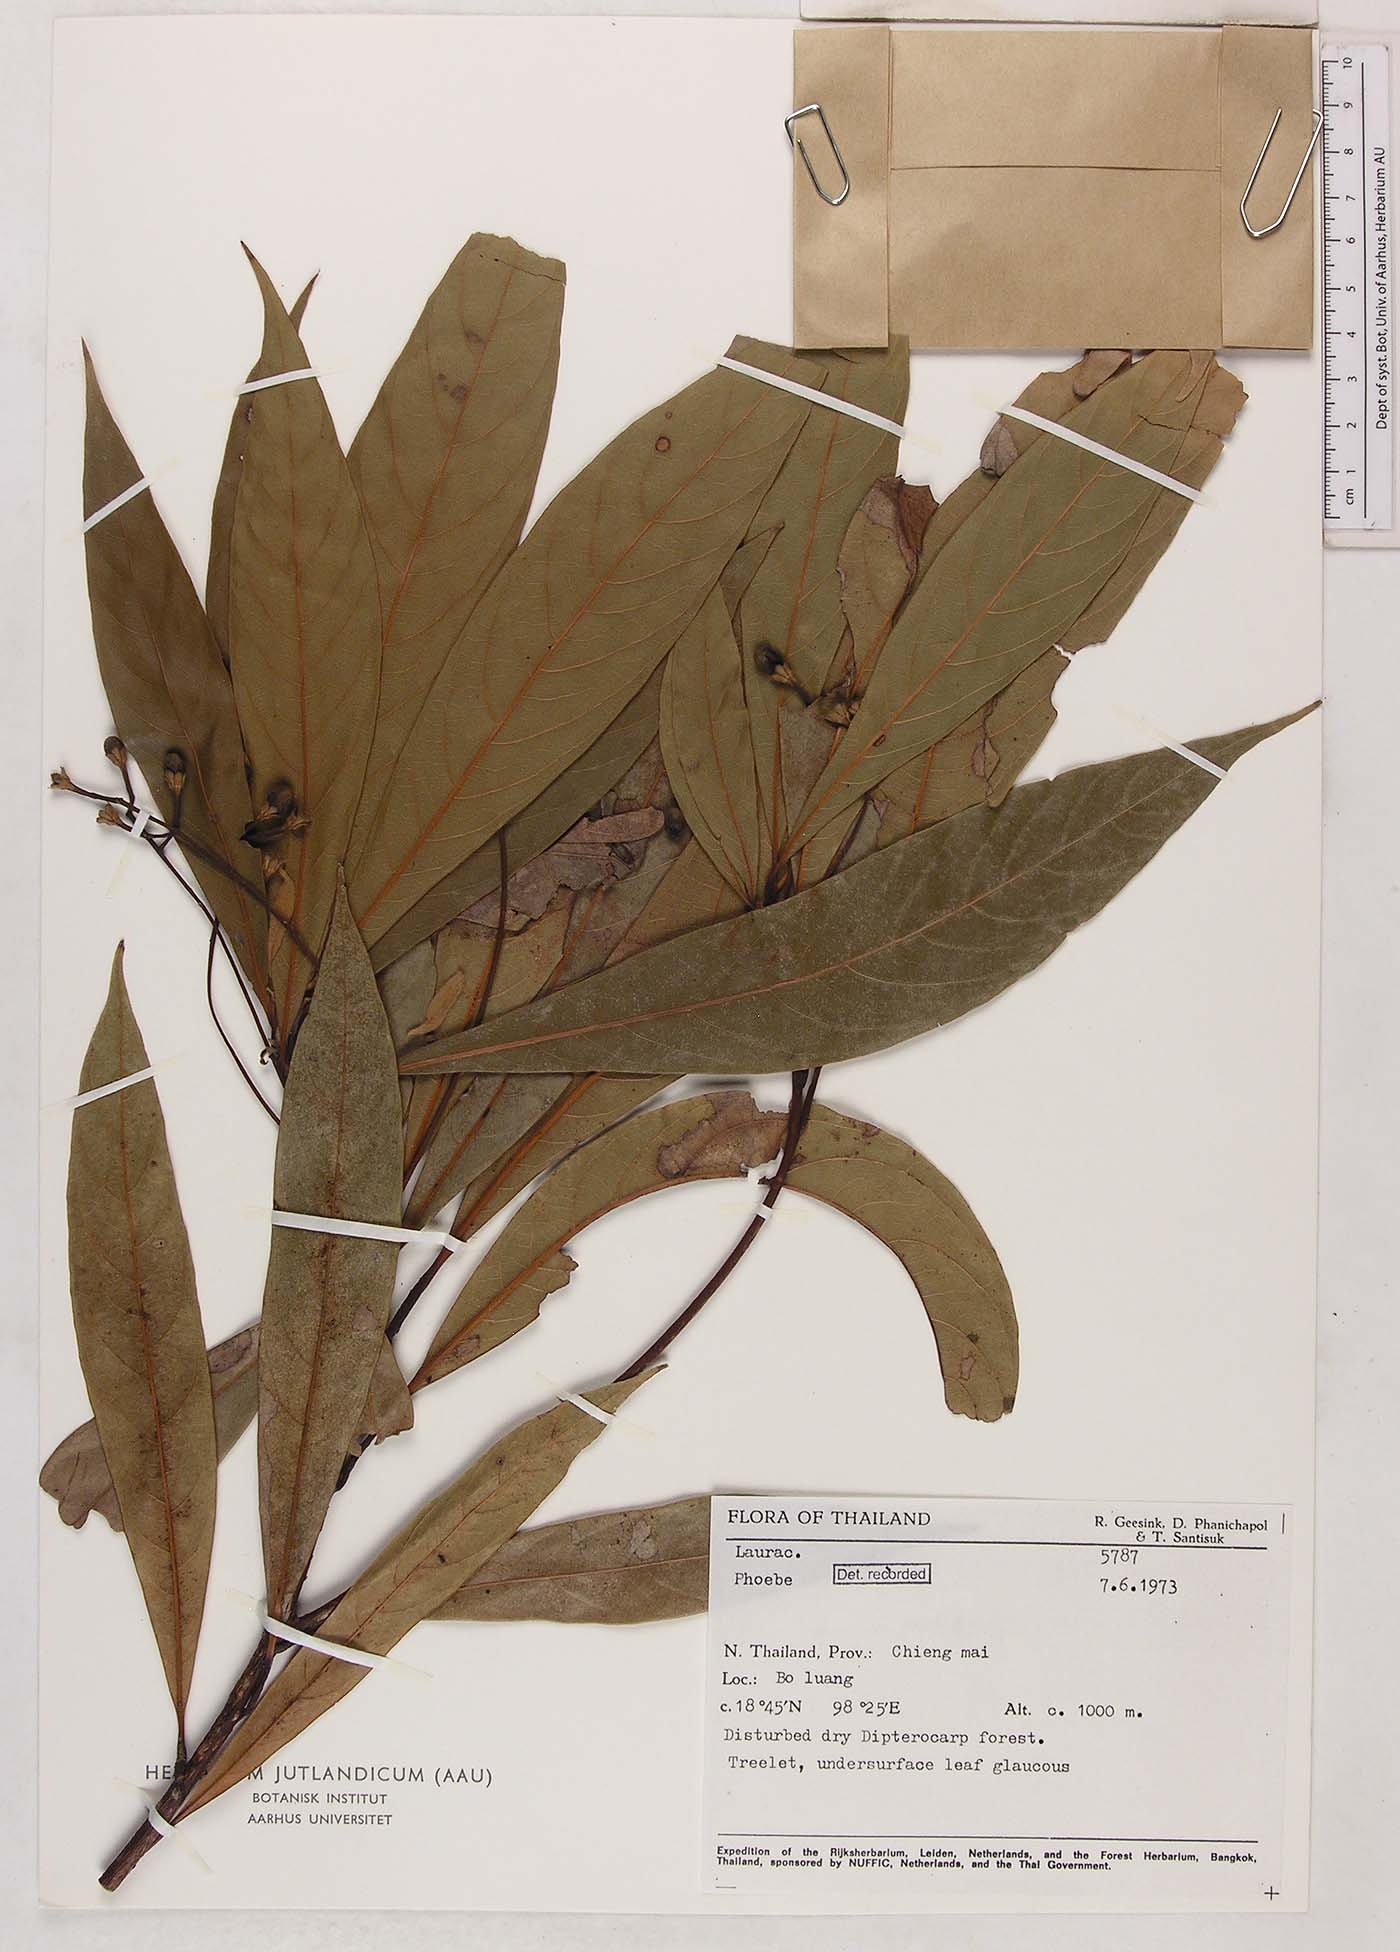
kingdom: Plantae
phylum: Tracheophyta
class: Magnoliopsida
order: Laurales
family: Lauraceae
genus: Phoebe
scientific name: Phoebe
